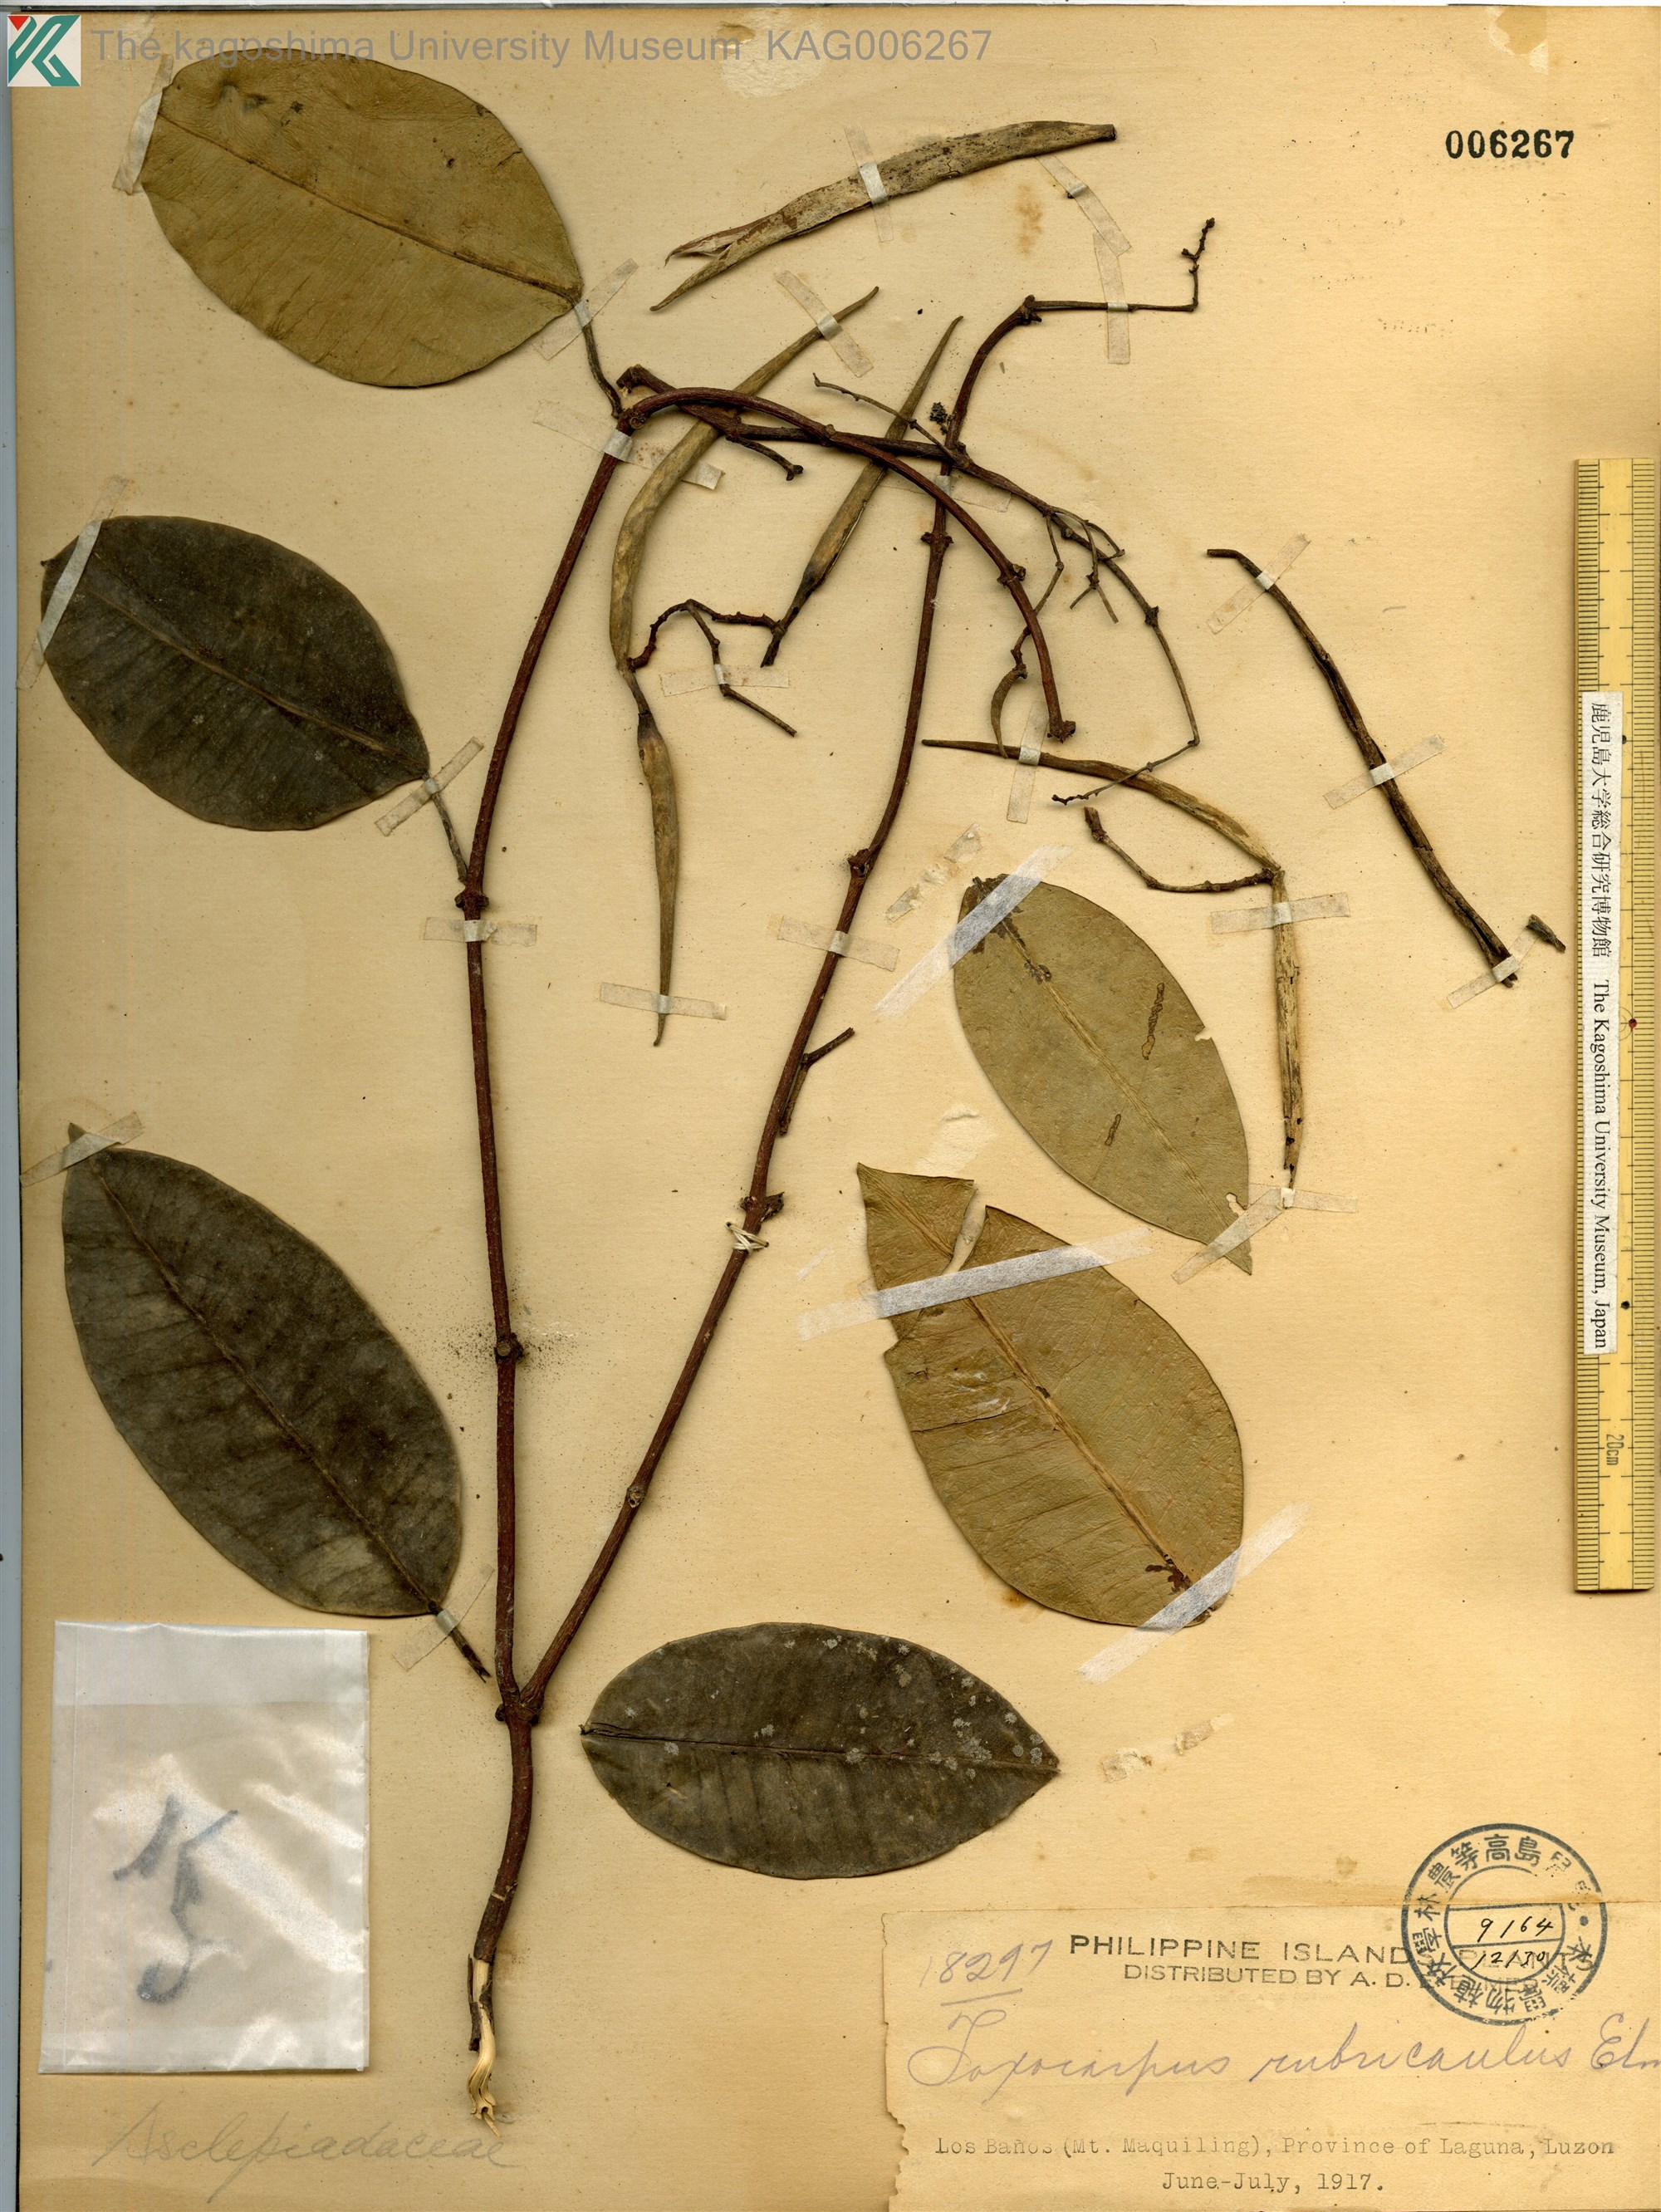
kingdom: Plantae
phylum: Tracheophyta
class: Magnoliopsida
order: Gentianales
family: Apocynaceae
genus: Toxocarpus
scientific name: Toxocarpus rubricaulis
